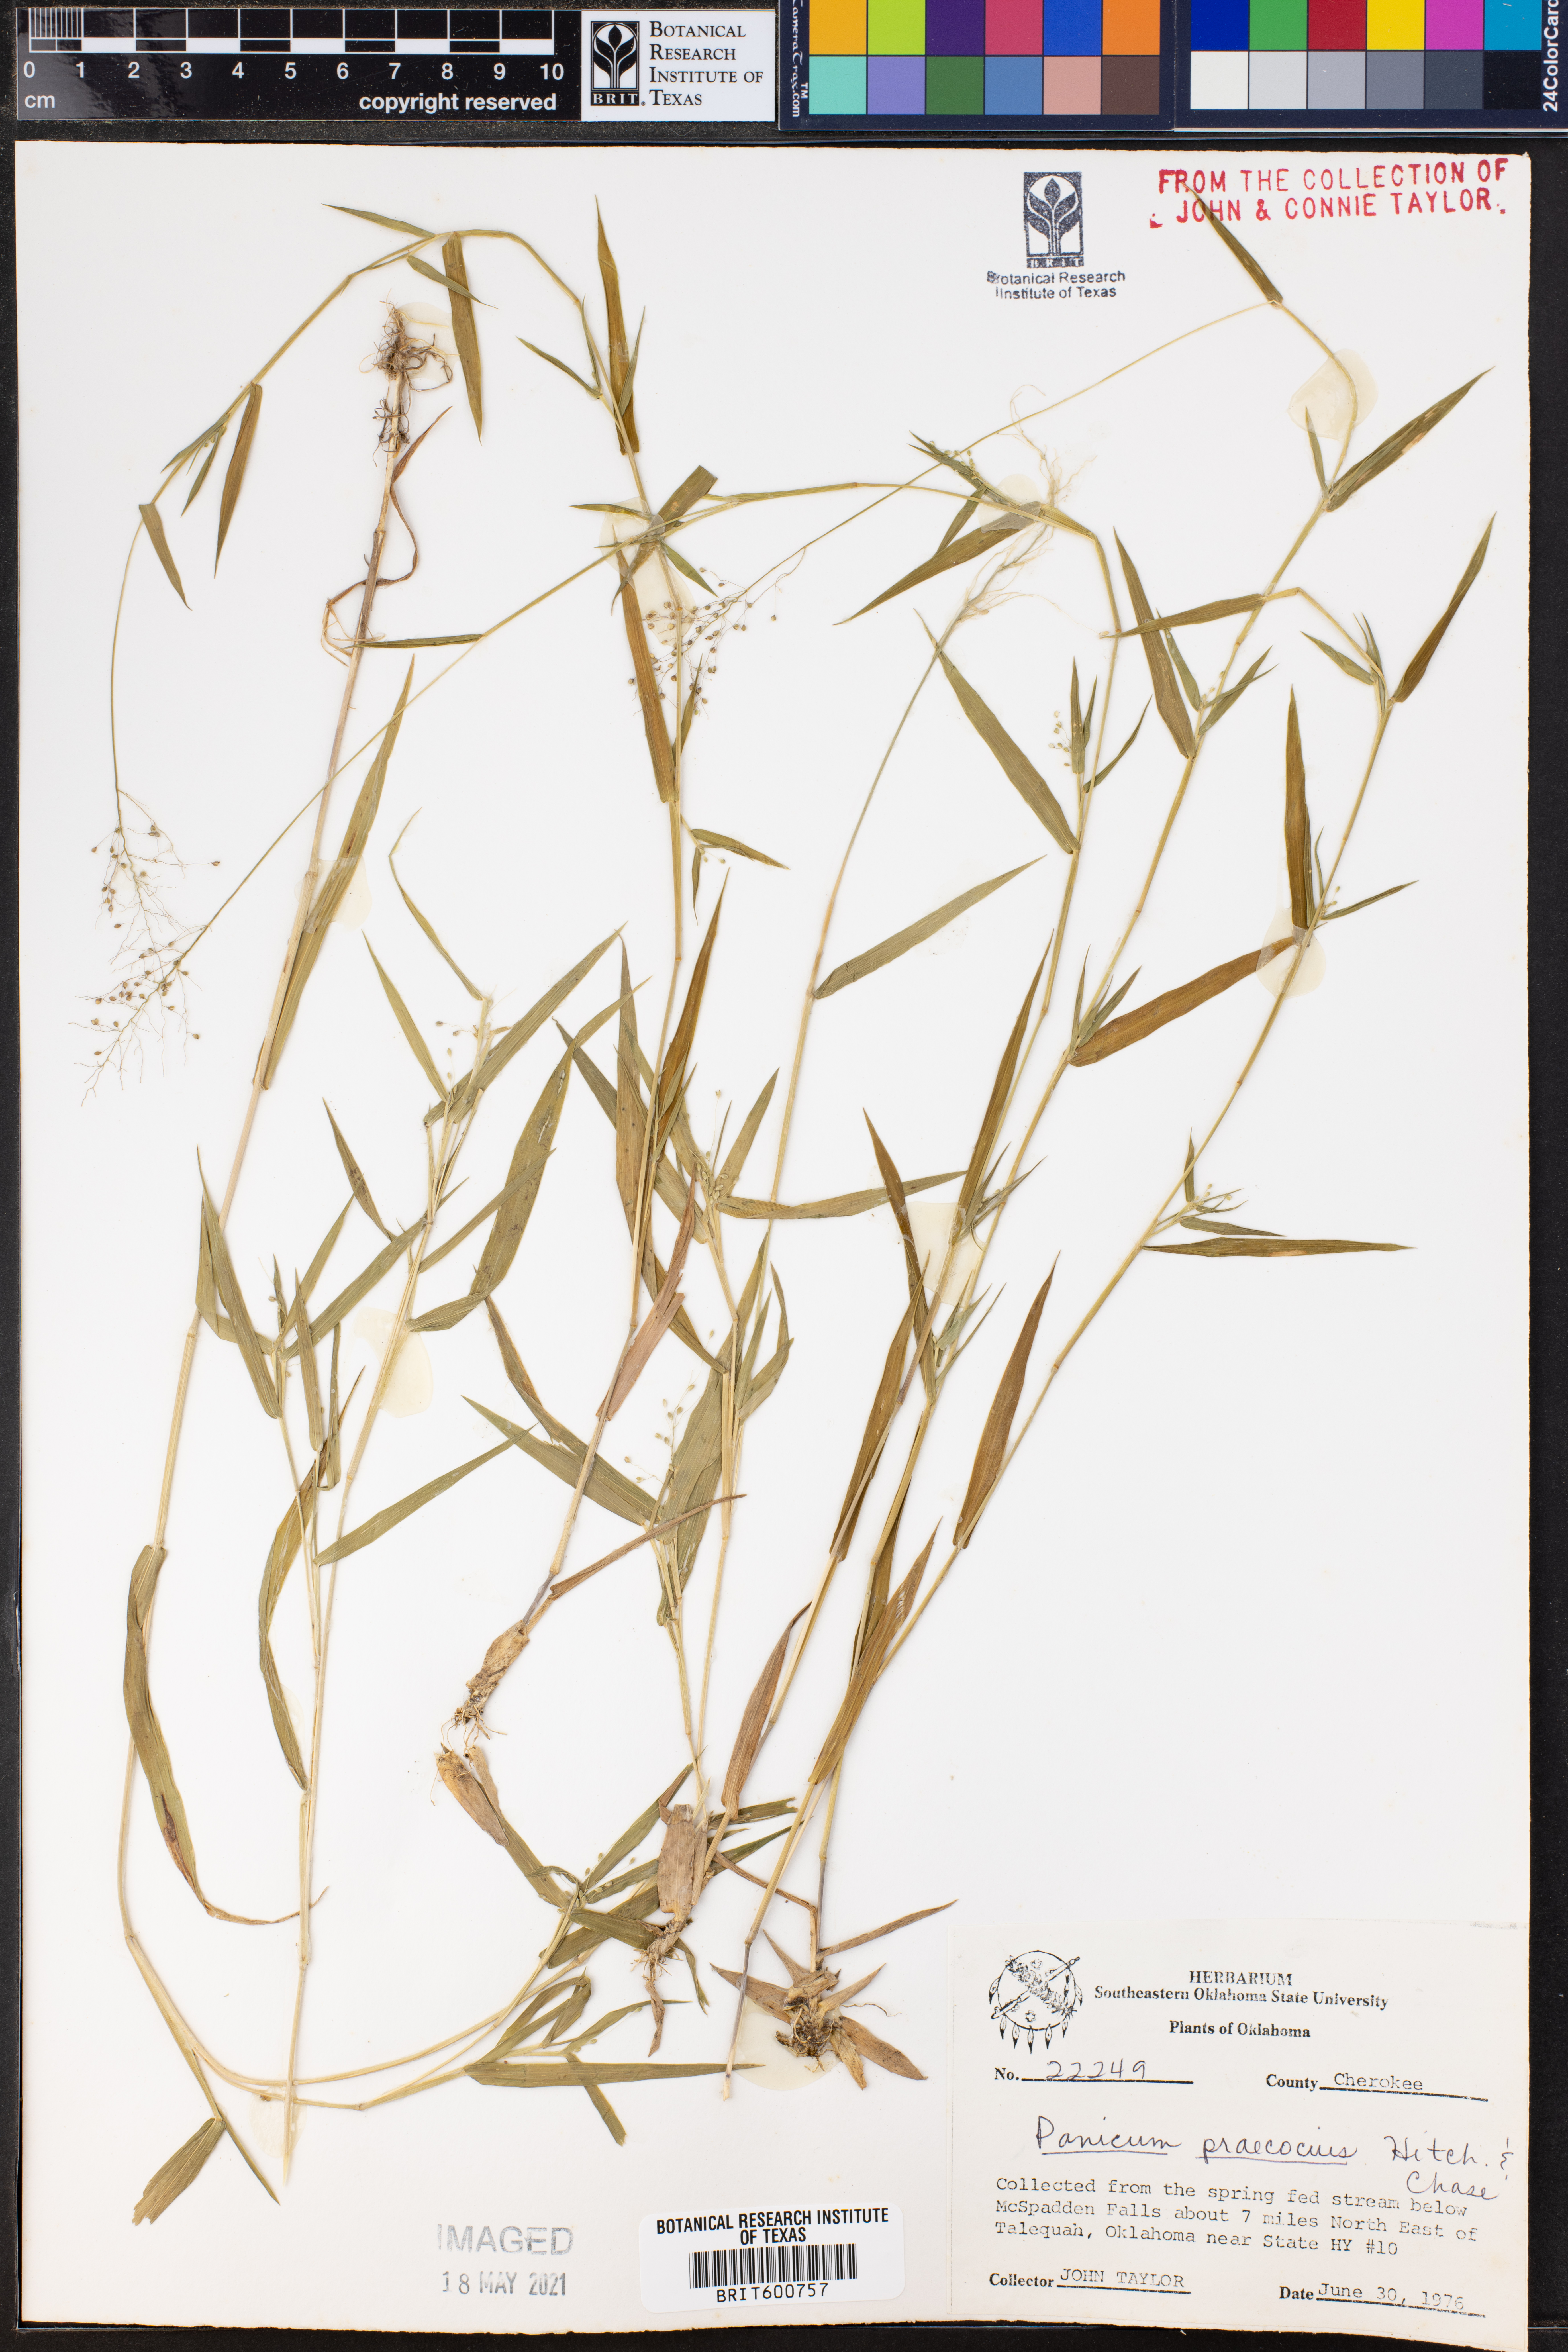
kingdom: Plantae
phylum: Tracheophyta
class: Liliopsida
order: Poales
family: Poaceae
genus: Dichanthelium
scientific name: Dichanthelium praecocius
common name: Early-branching panicgrass
